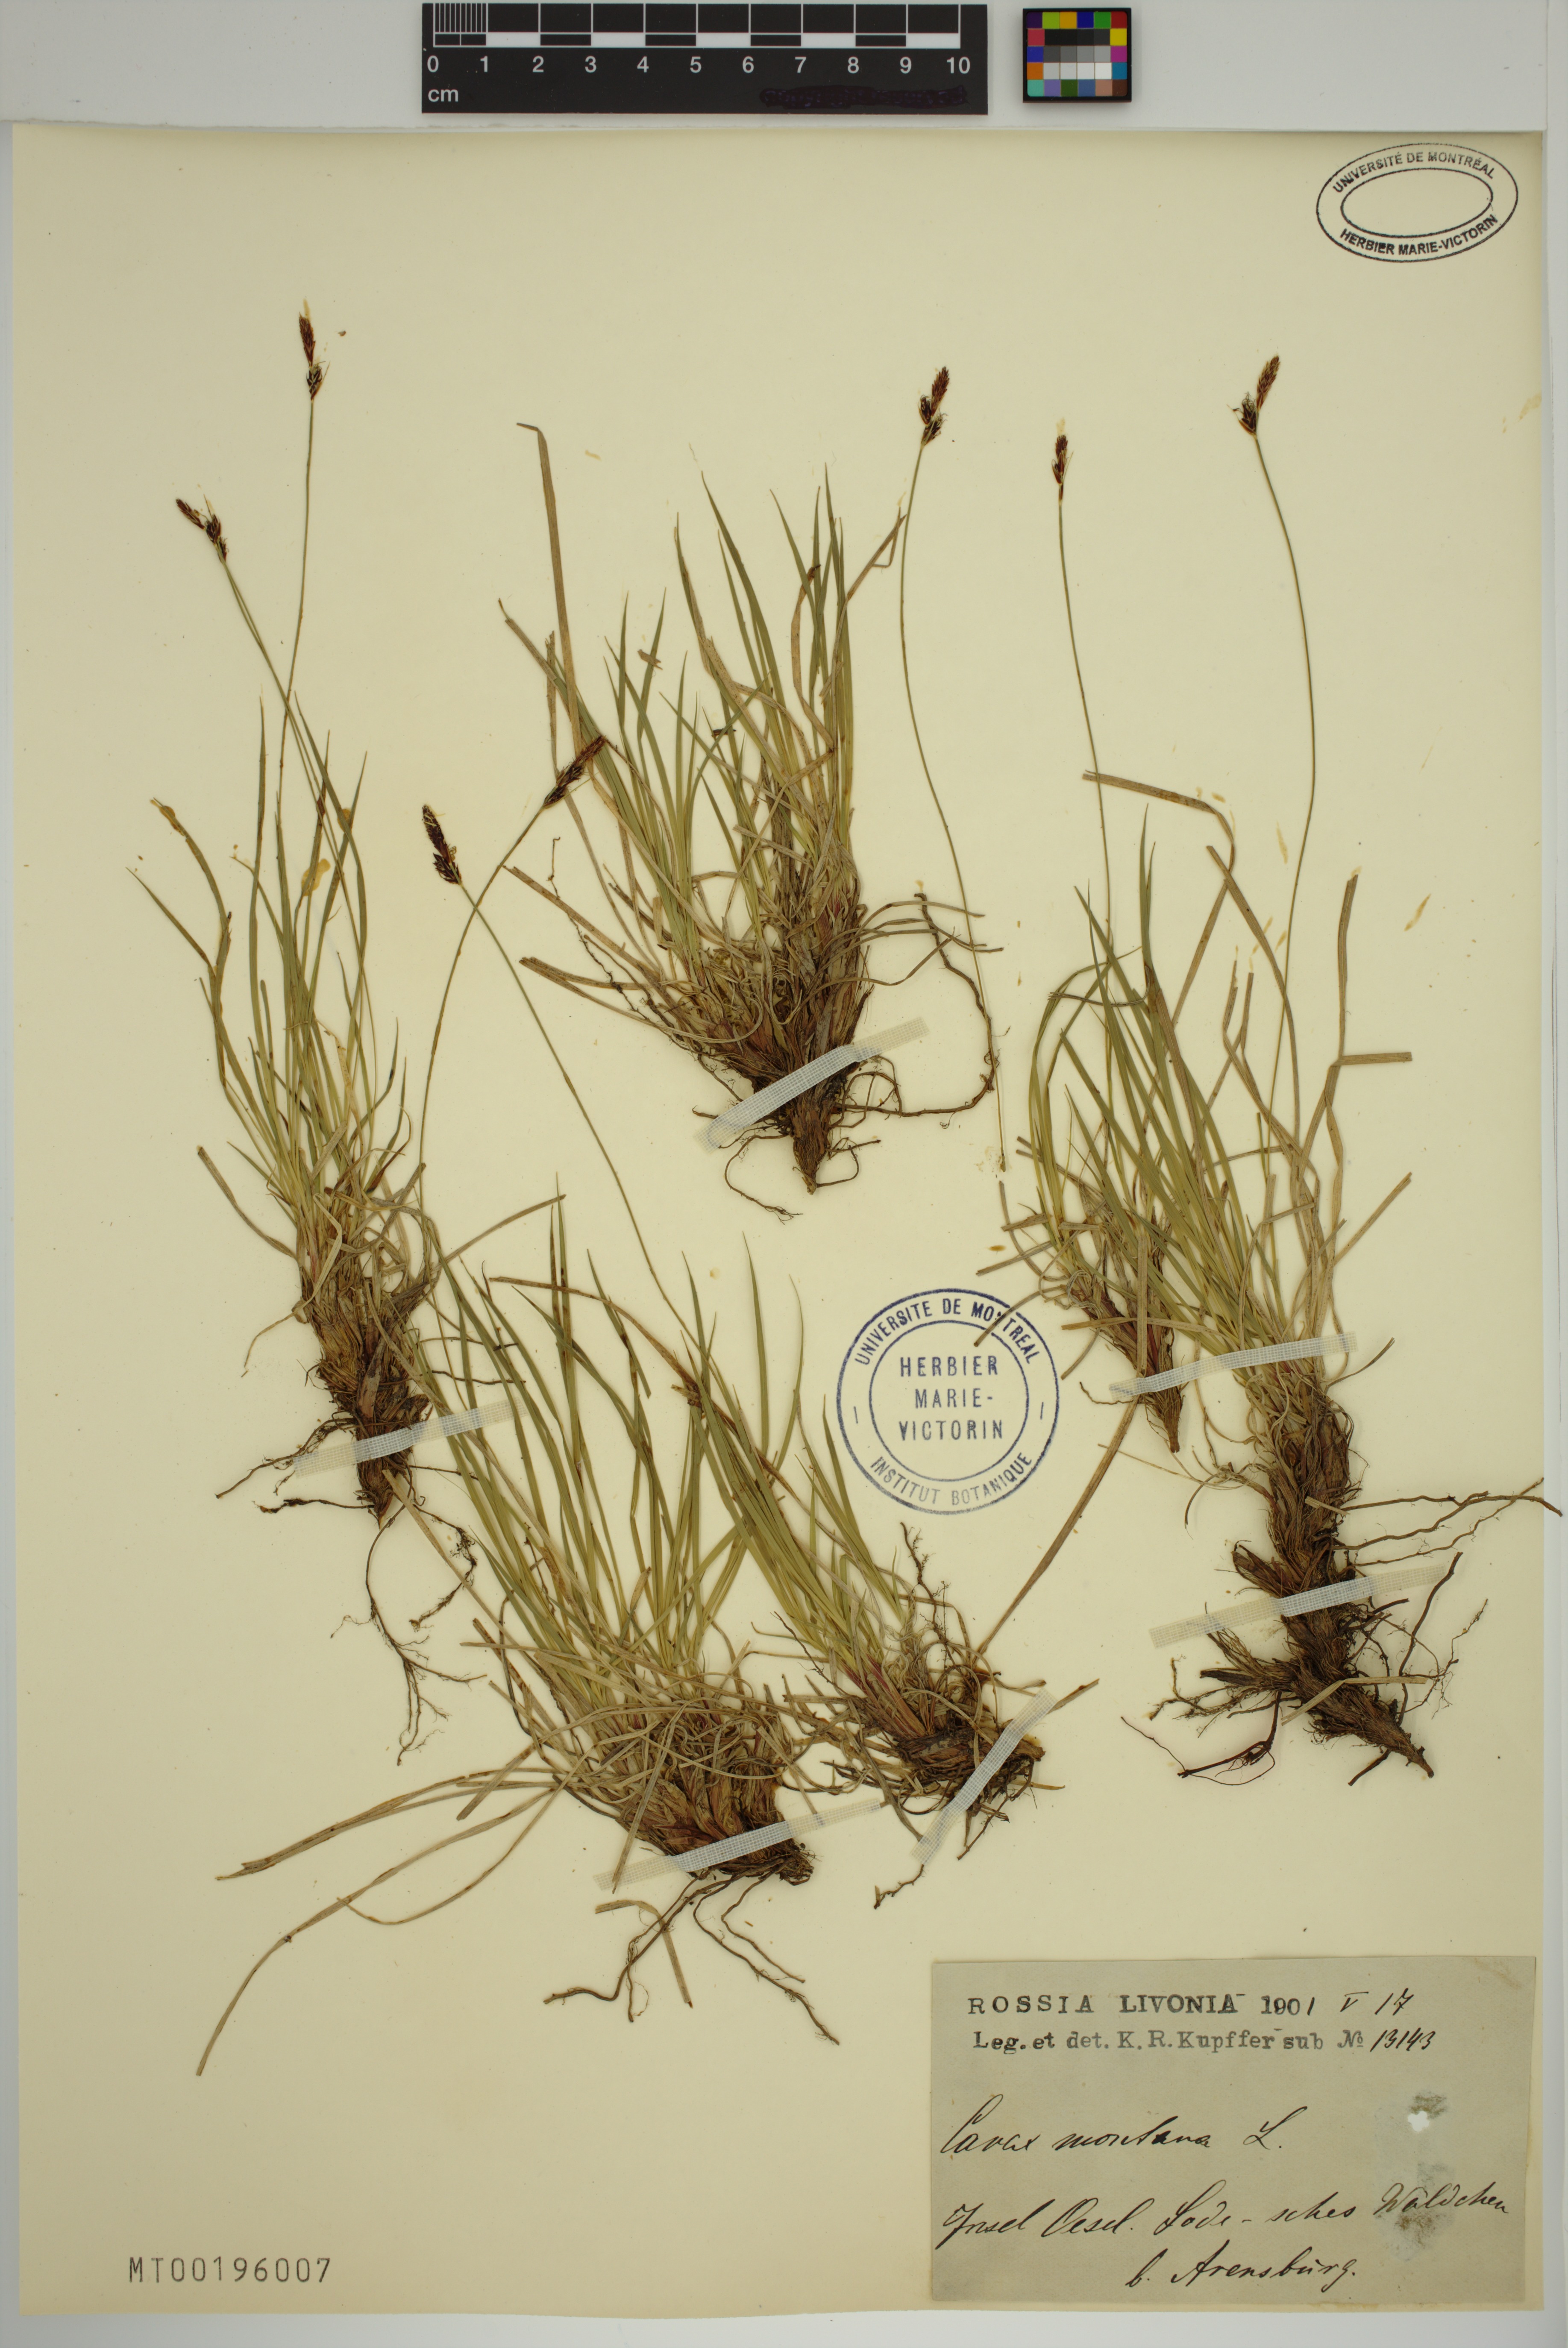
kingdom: Plantae
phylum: Tracheophyta
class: Liliopsida
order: Poales
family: Cyperaceae
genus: Carex
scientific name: Carex montana
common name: Soft-leaved sedge
